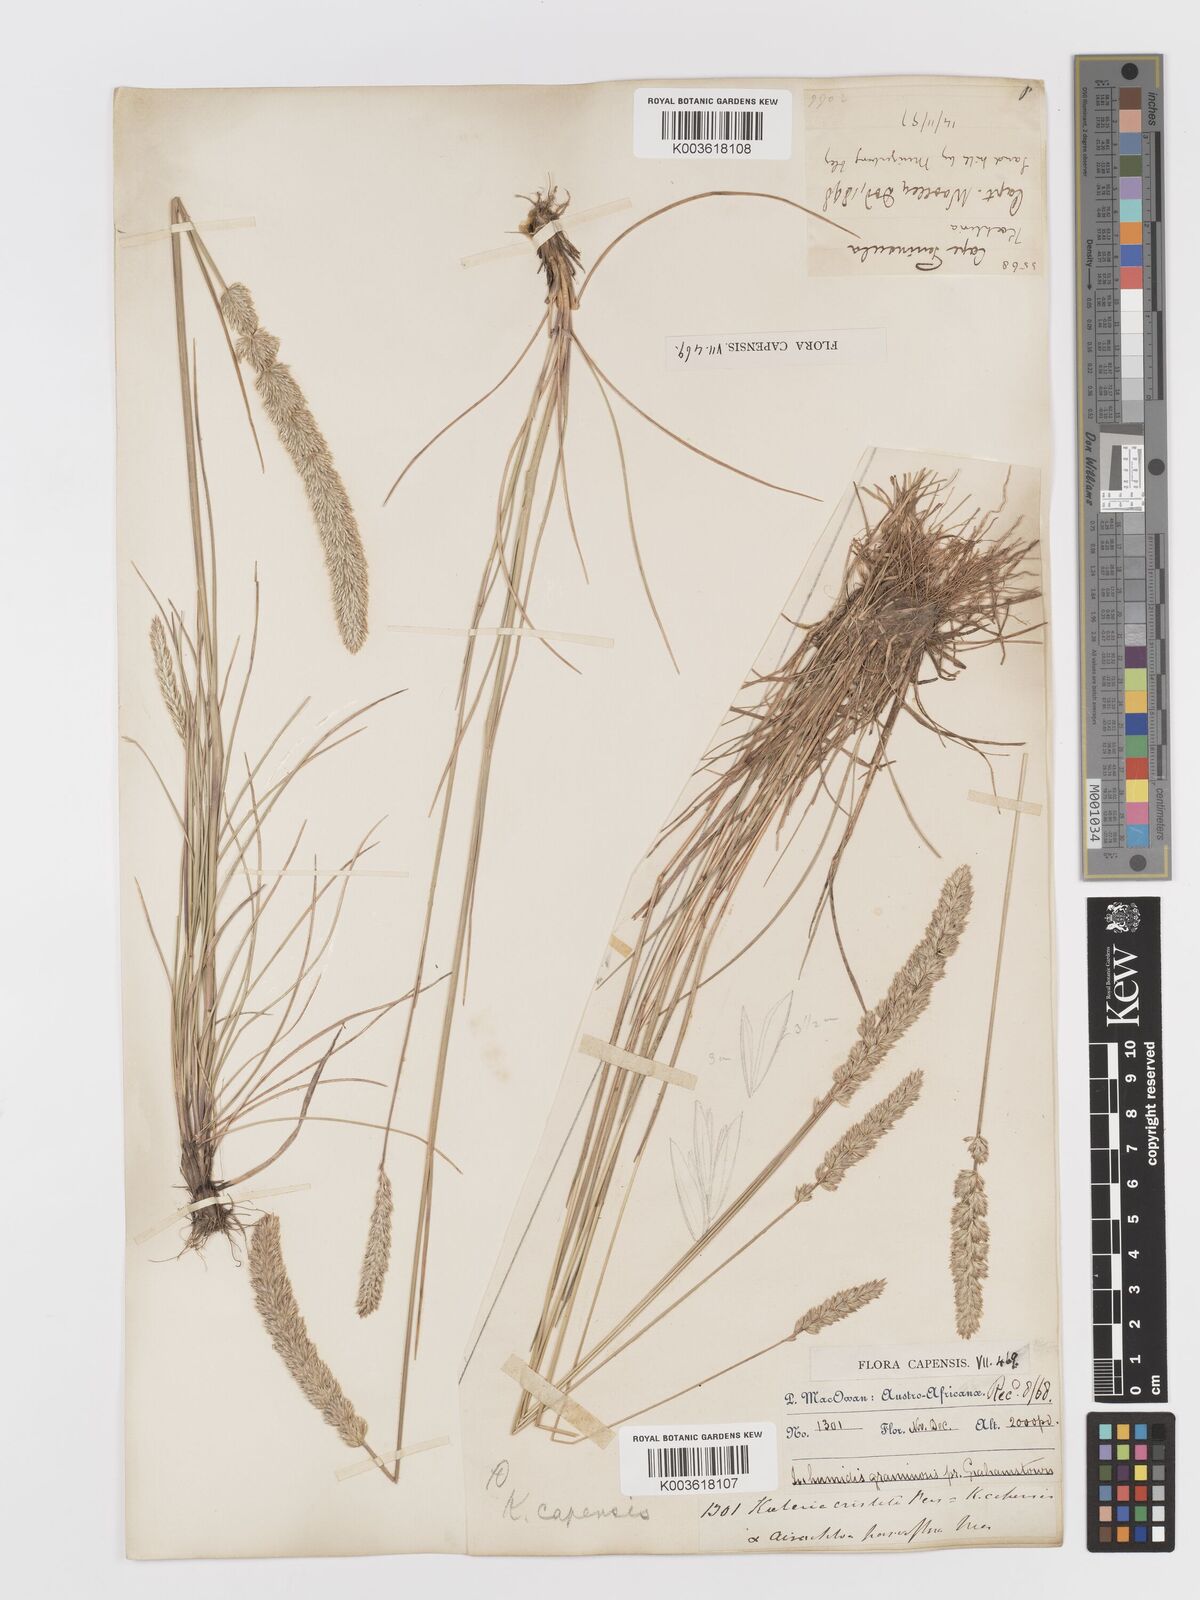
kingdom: Plantae
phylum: Tracheophyta
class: Liliopsida
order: Poales
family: Poaceae
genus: Koeleria
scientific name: Koeleria capensis
